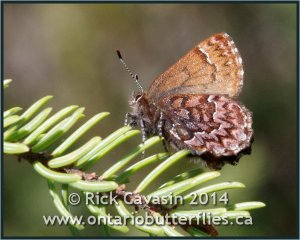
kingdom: Animalia
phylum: Arthropoda
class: Insecta
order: Lepidoptera
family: Lycaenidae
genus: Incisalia
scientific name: Incisalia eryphon
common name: Western Pine Elfin
